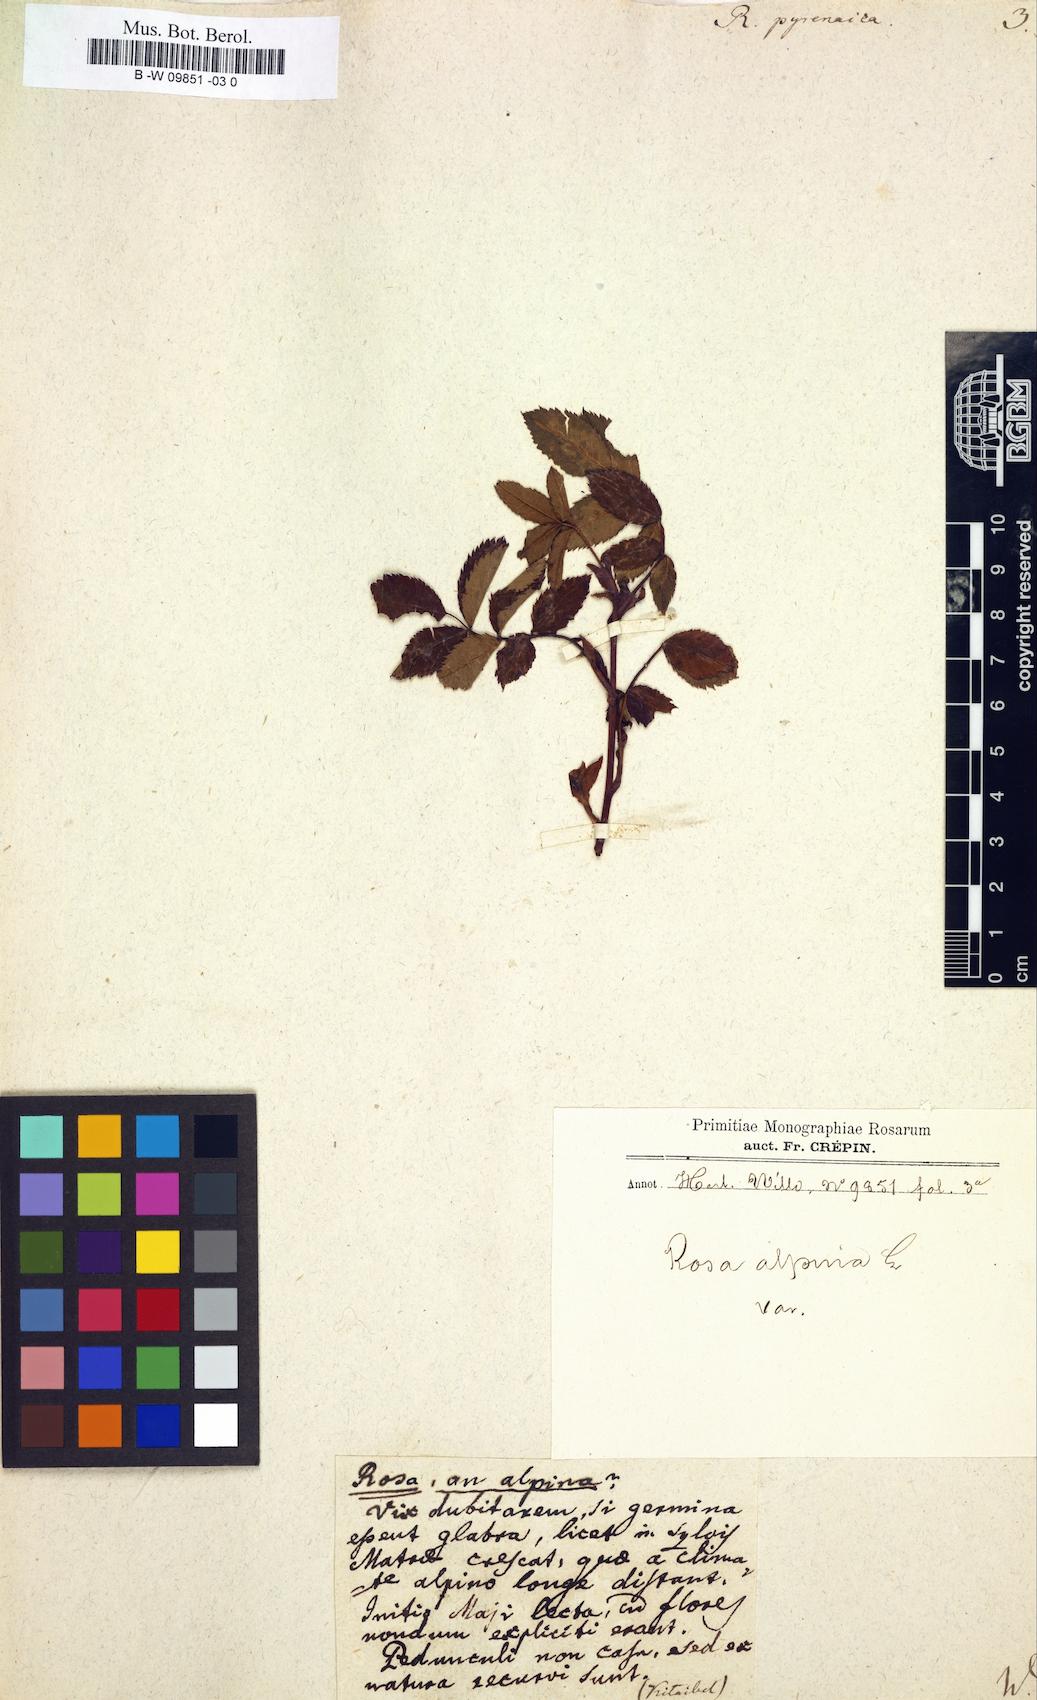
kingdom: Plantae
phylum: Tracheophyta
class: Magnoliopsida
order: Rosales
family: Rosaceae
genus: Rosa
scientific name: Rosa pendulina
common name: Alpine rose
